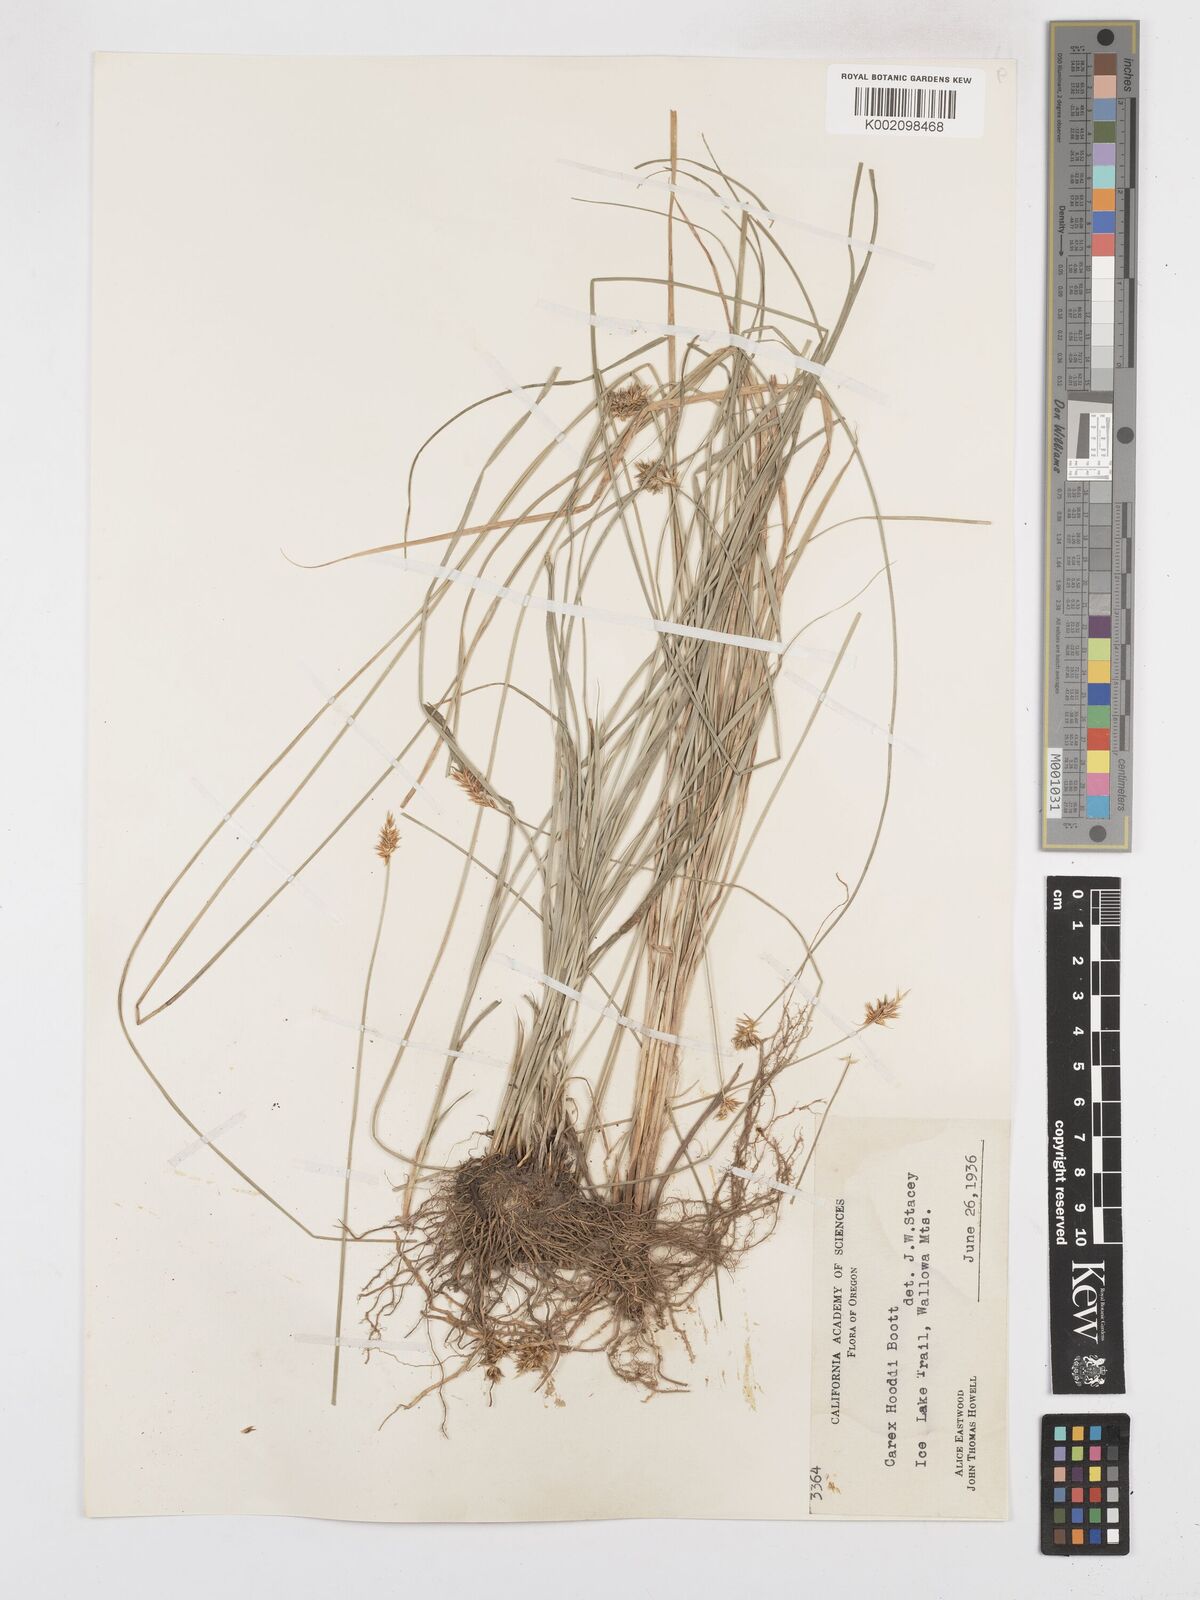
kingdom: Plantae
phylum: Tracheophyta
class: Liliopsida
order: Poales
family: Cyperaceae
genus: Carex
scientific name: Carex hoodii
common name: Hood's sedge
